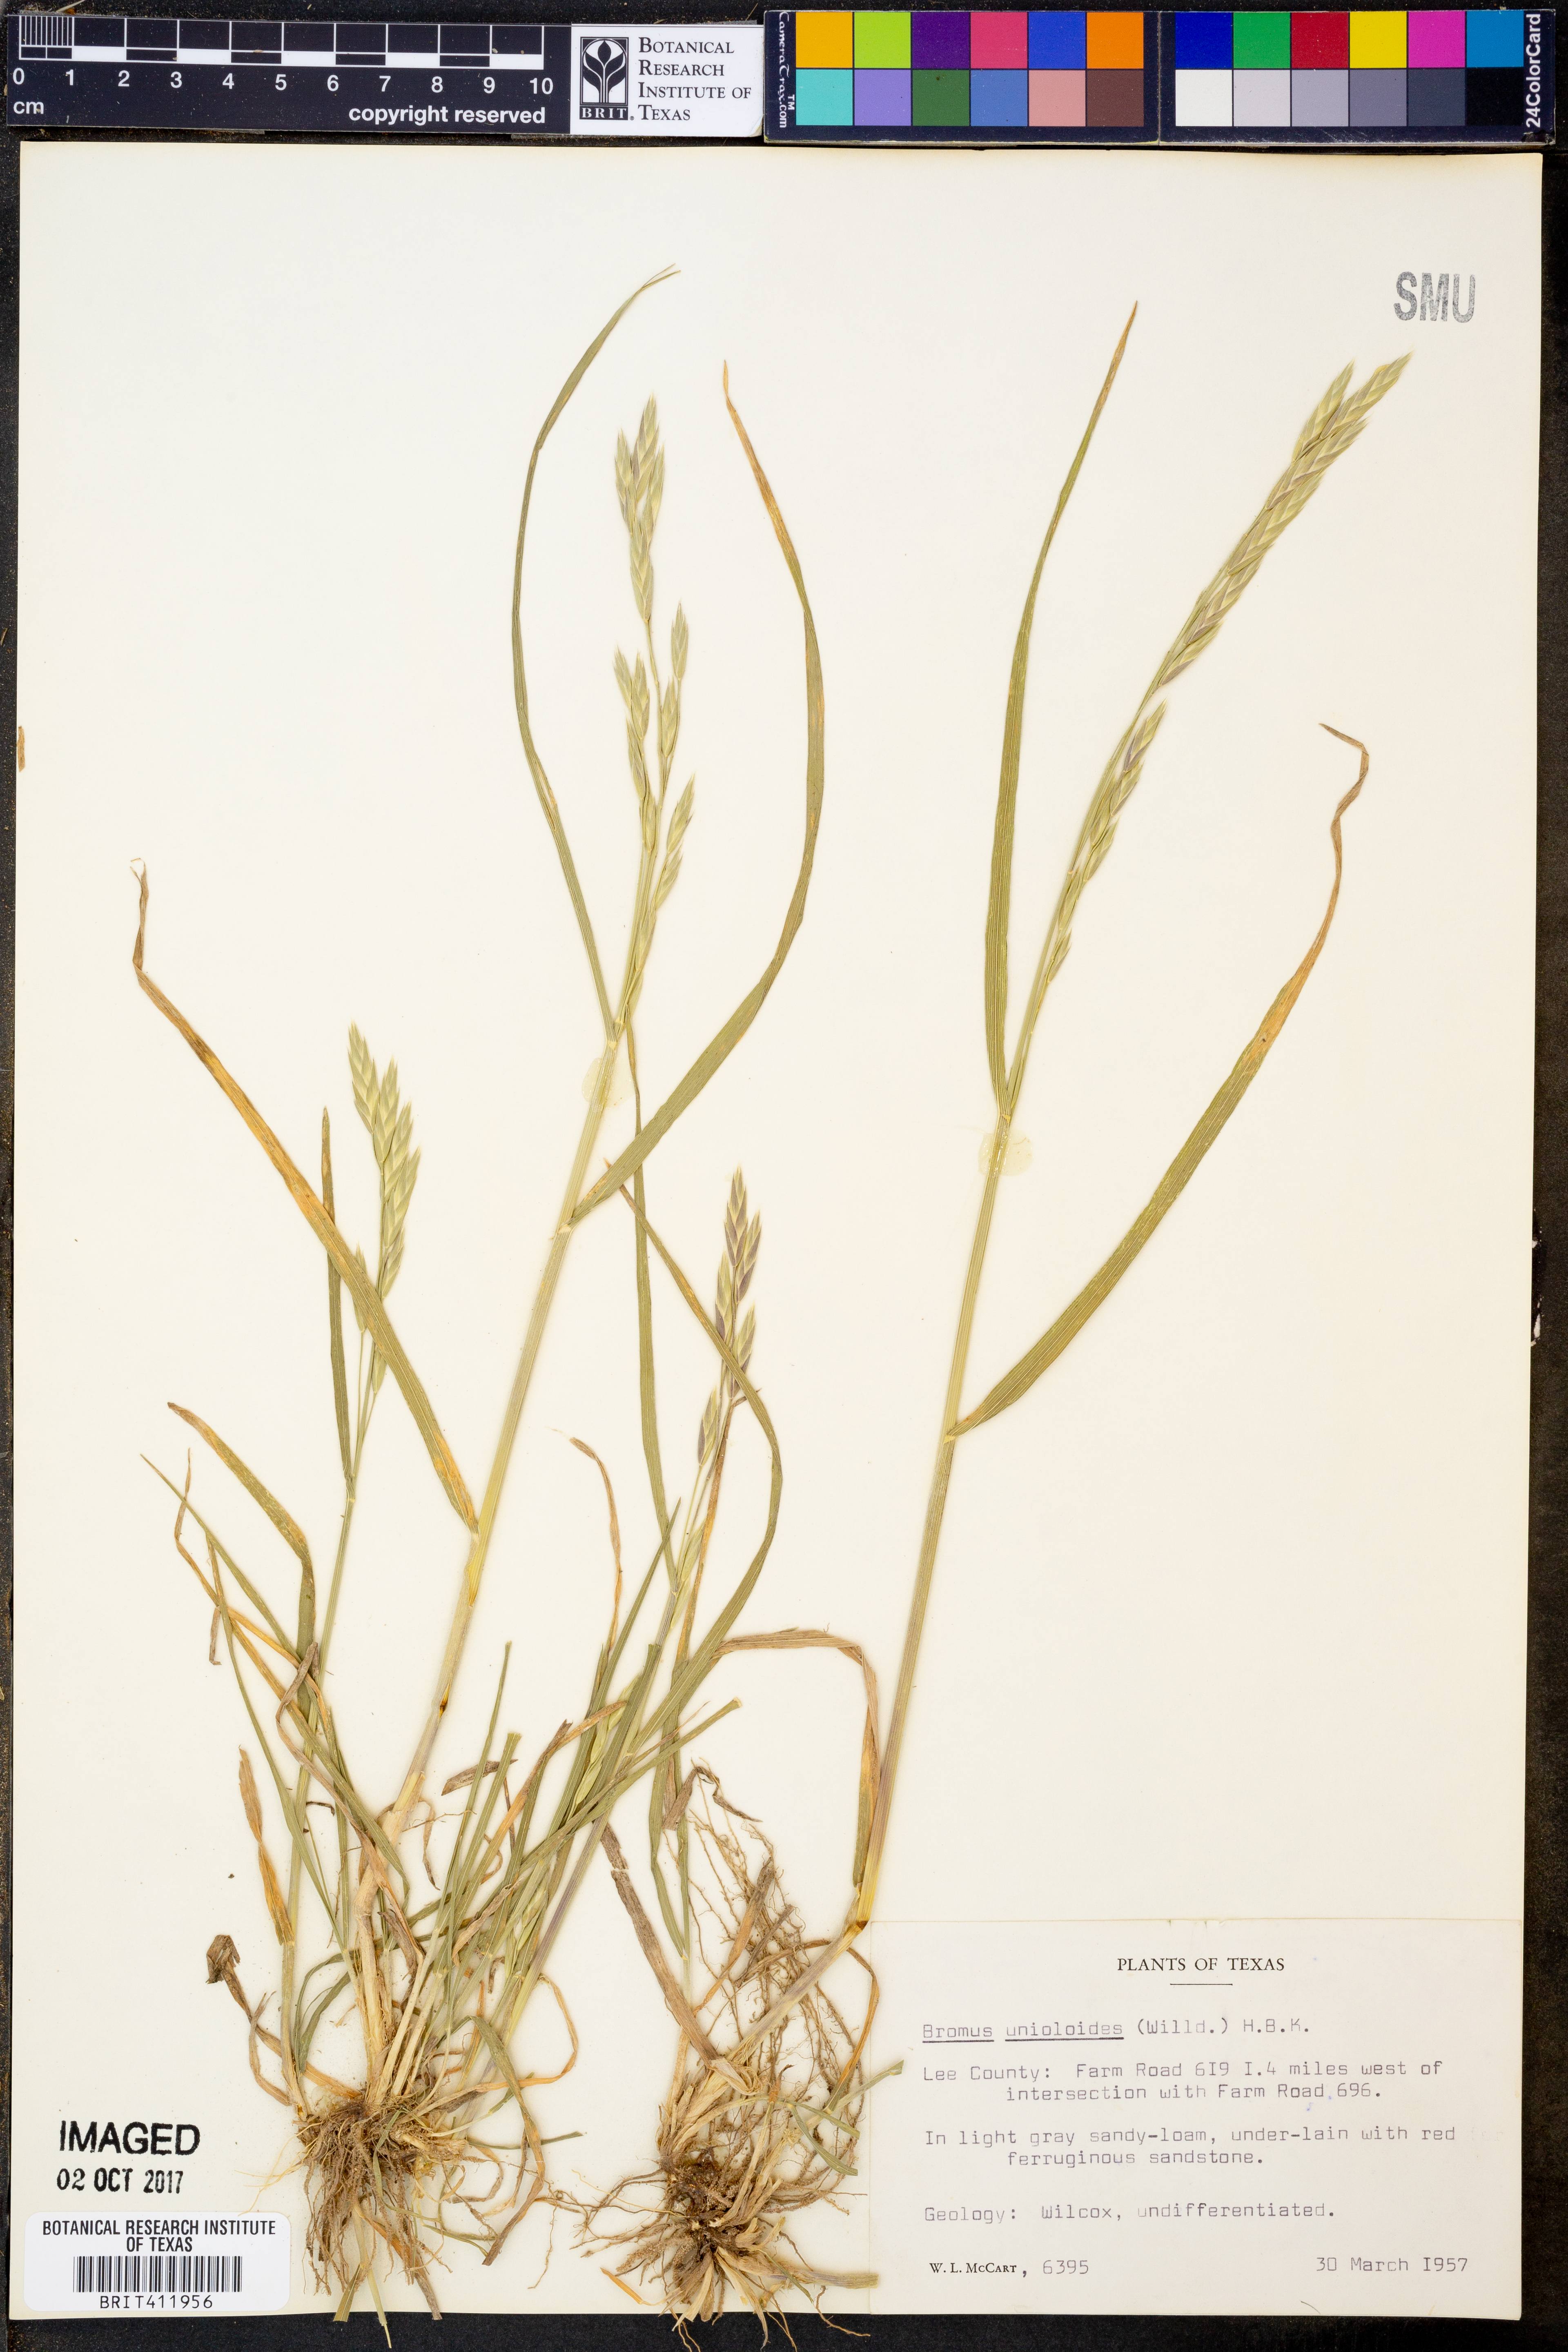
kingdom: Plantae
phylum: Tracheophyta
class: Liliopsida
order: Poales
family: Poaceae
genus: Bromus
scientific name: Bromus catharticus
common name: Rescuegrass
